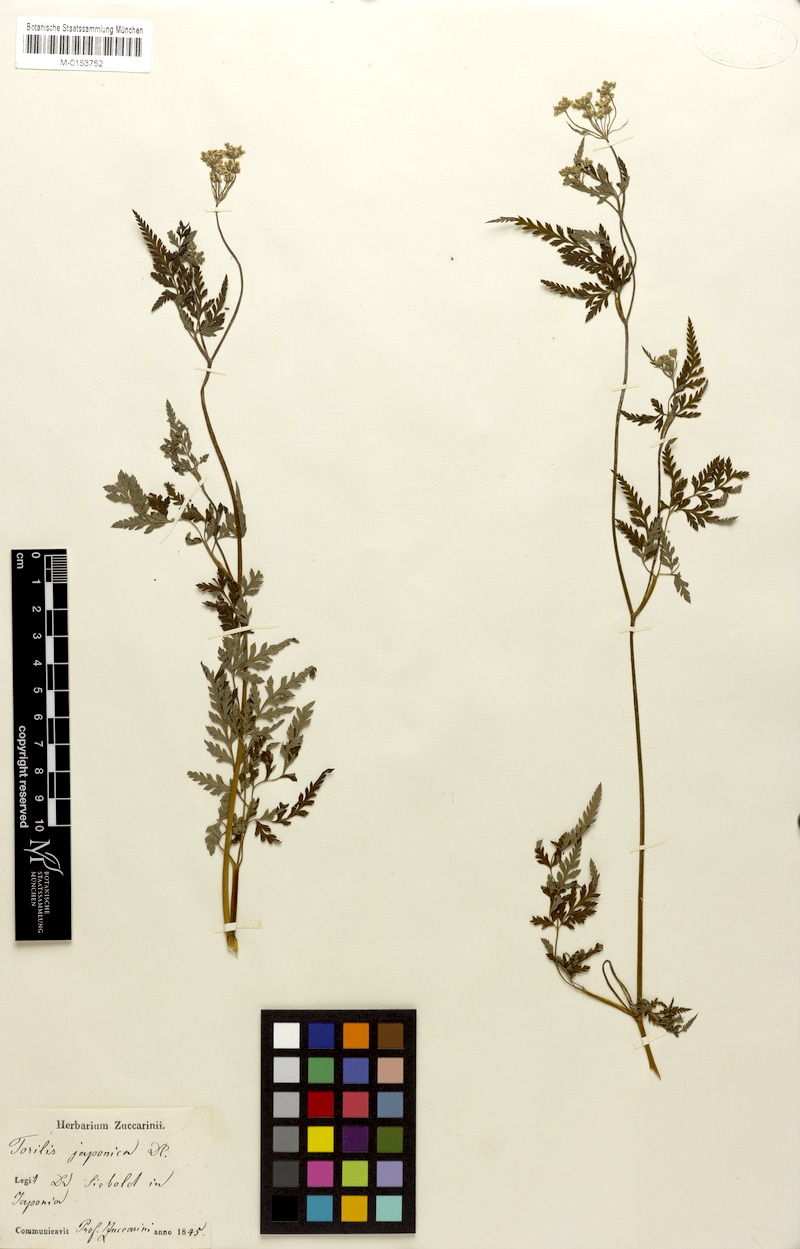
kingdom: Plantae
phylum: Tracheophyta
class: Magnoliopsida
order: Apiales
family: Apiaceae
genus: Torilis
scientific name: Torilis japonica
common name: Upright hedge-parsley
